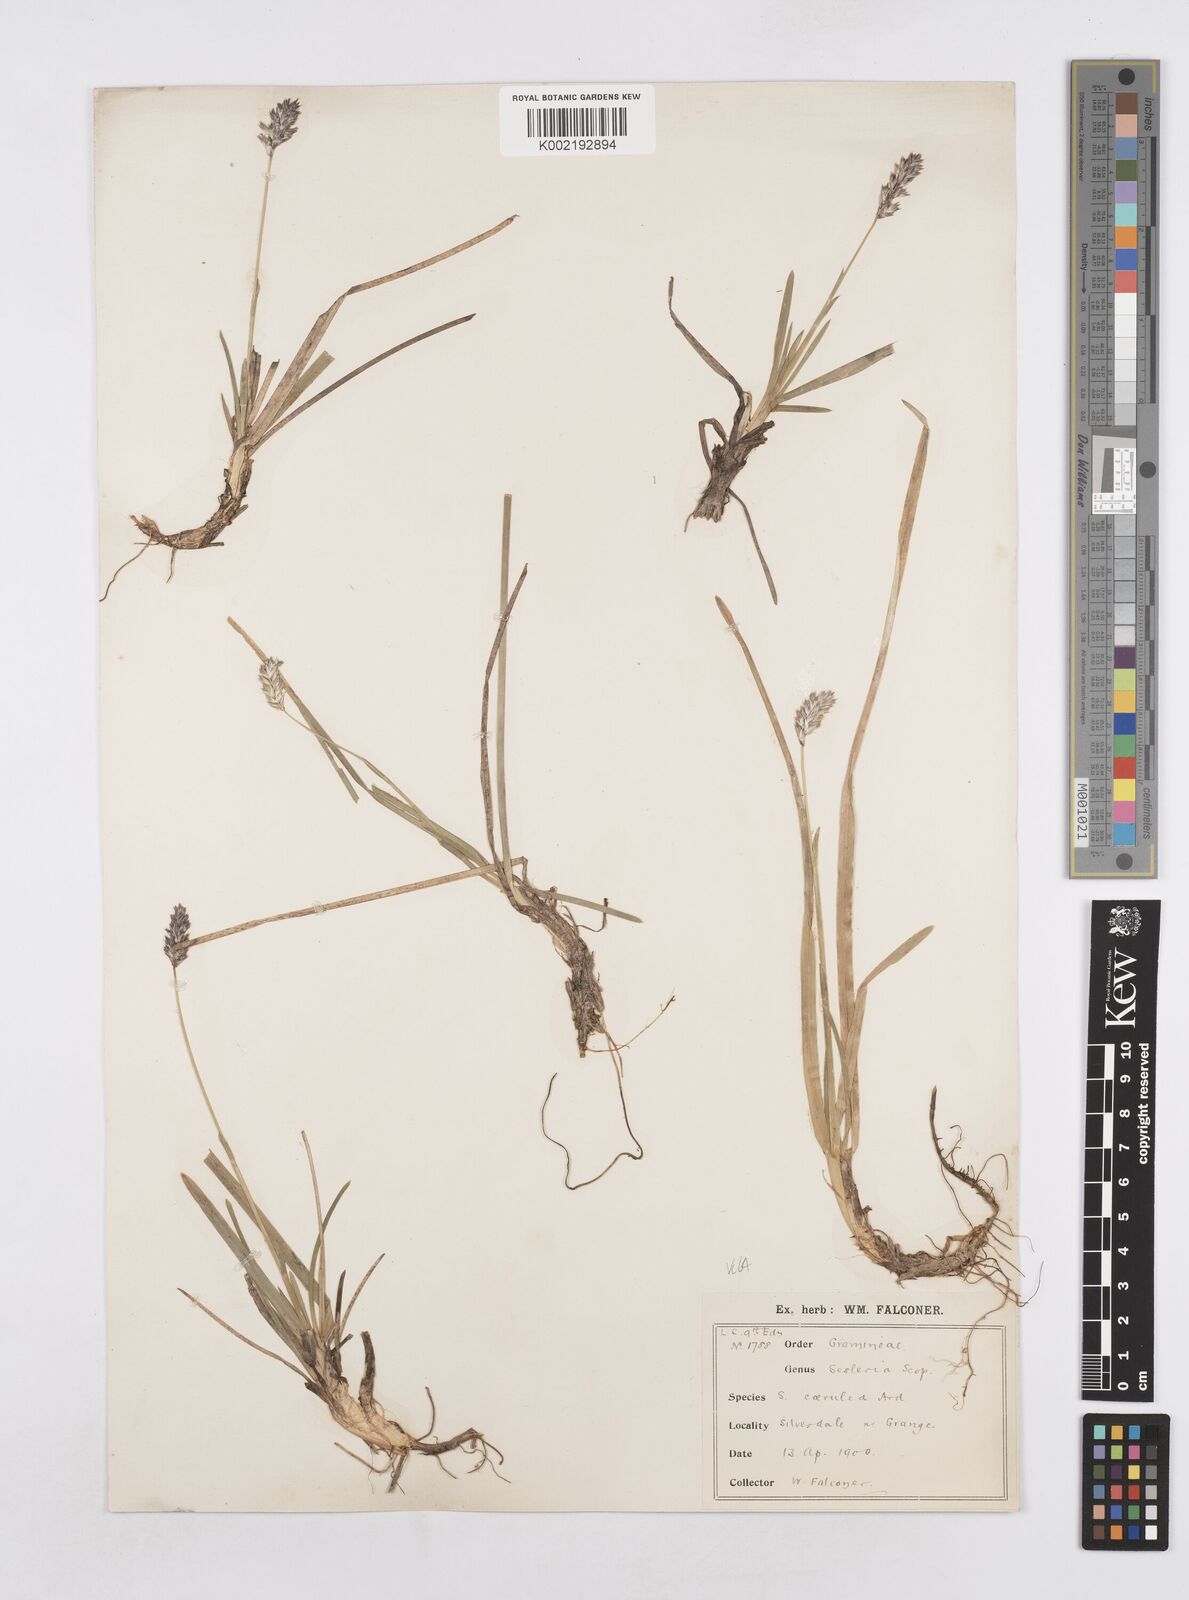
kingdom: Plantae
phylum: Tracheophyta
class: Liliopsida
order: Poales
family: Poaceae
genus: Sesleria
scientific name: Sesleria caerulea
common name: Blue moor-grass
